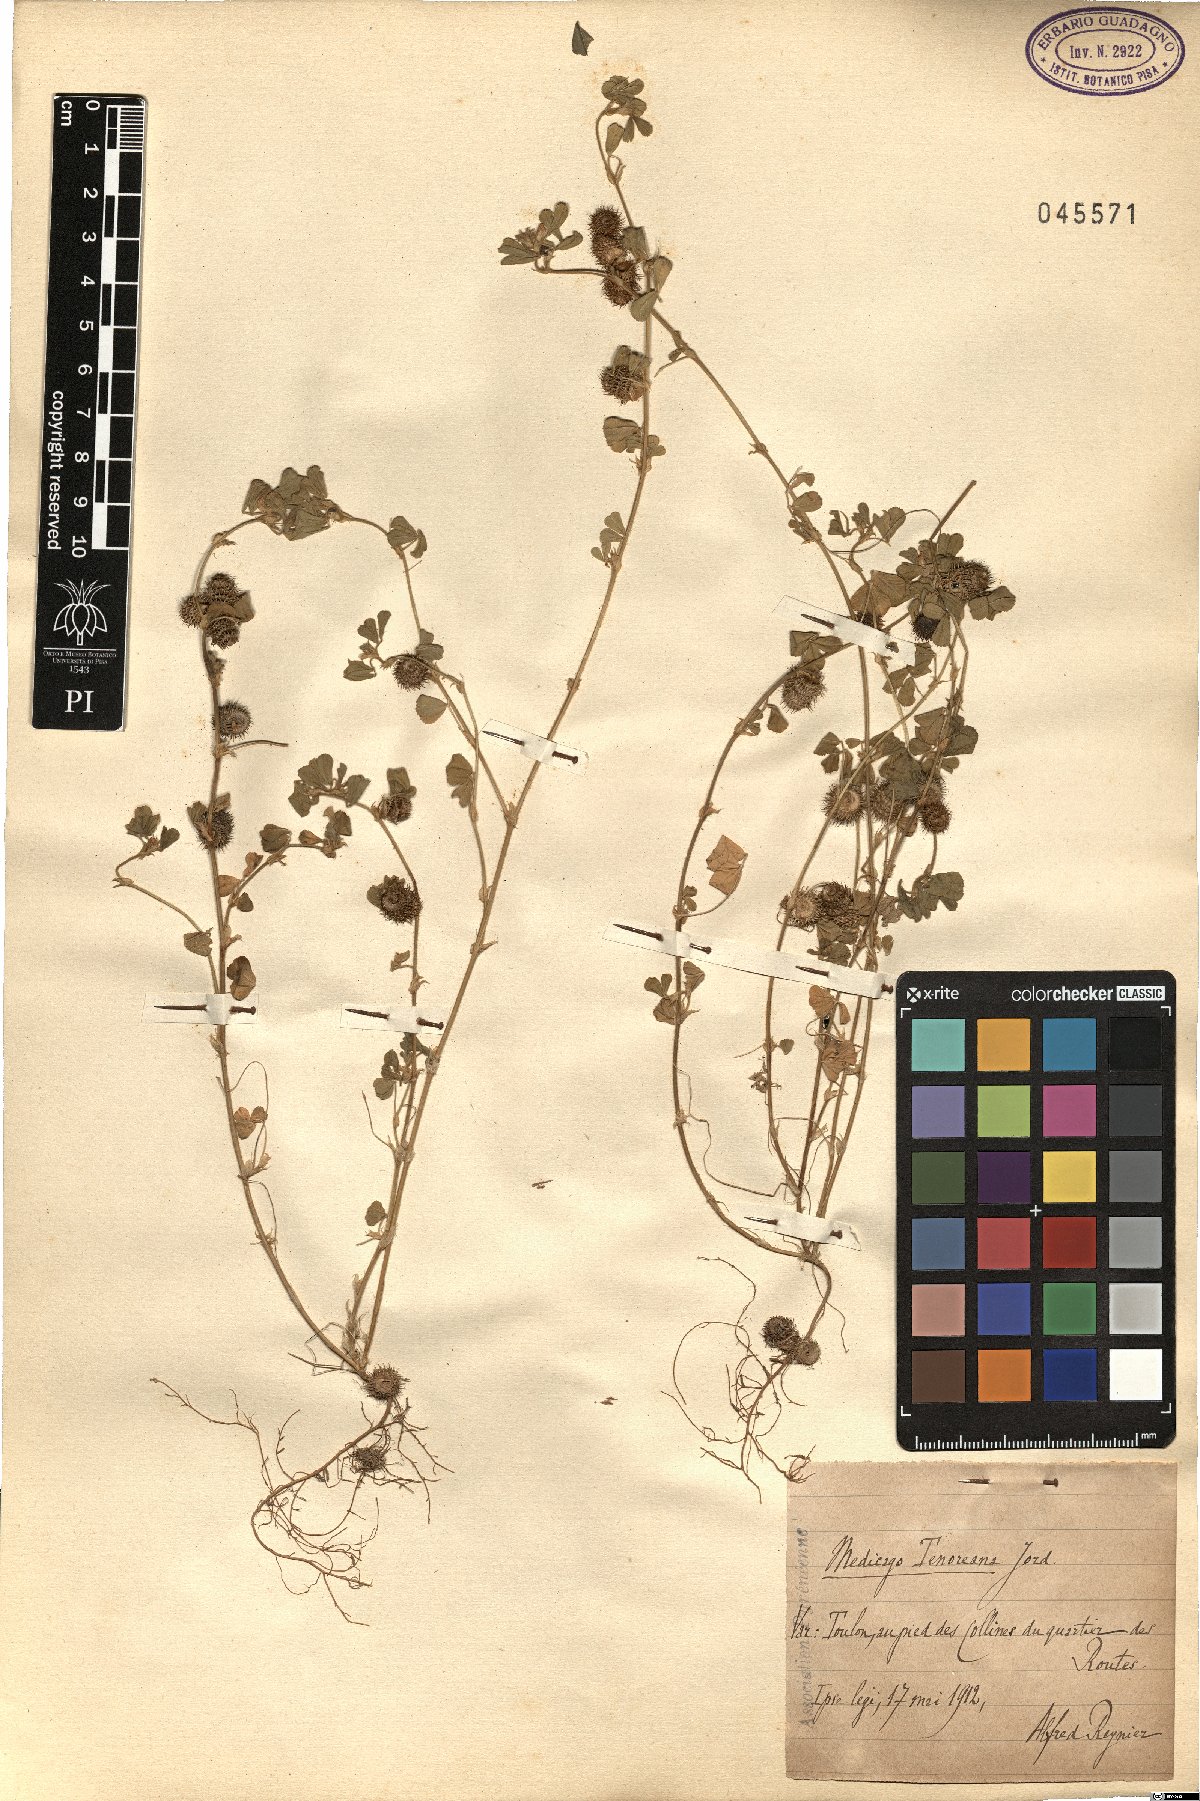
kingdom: Plantae
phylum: Tracheophyta
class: Magnoliopsida
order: Fabales
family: Fabaceae
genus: Medicago
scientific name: Medicago tenoreana
